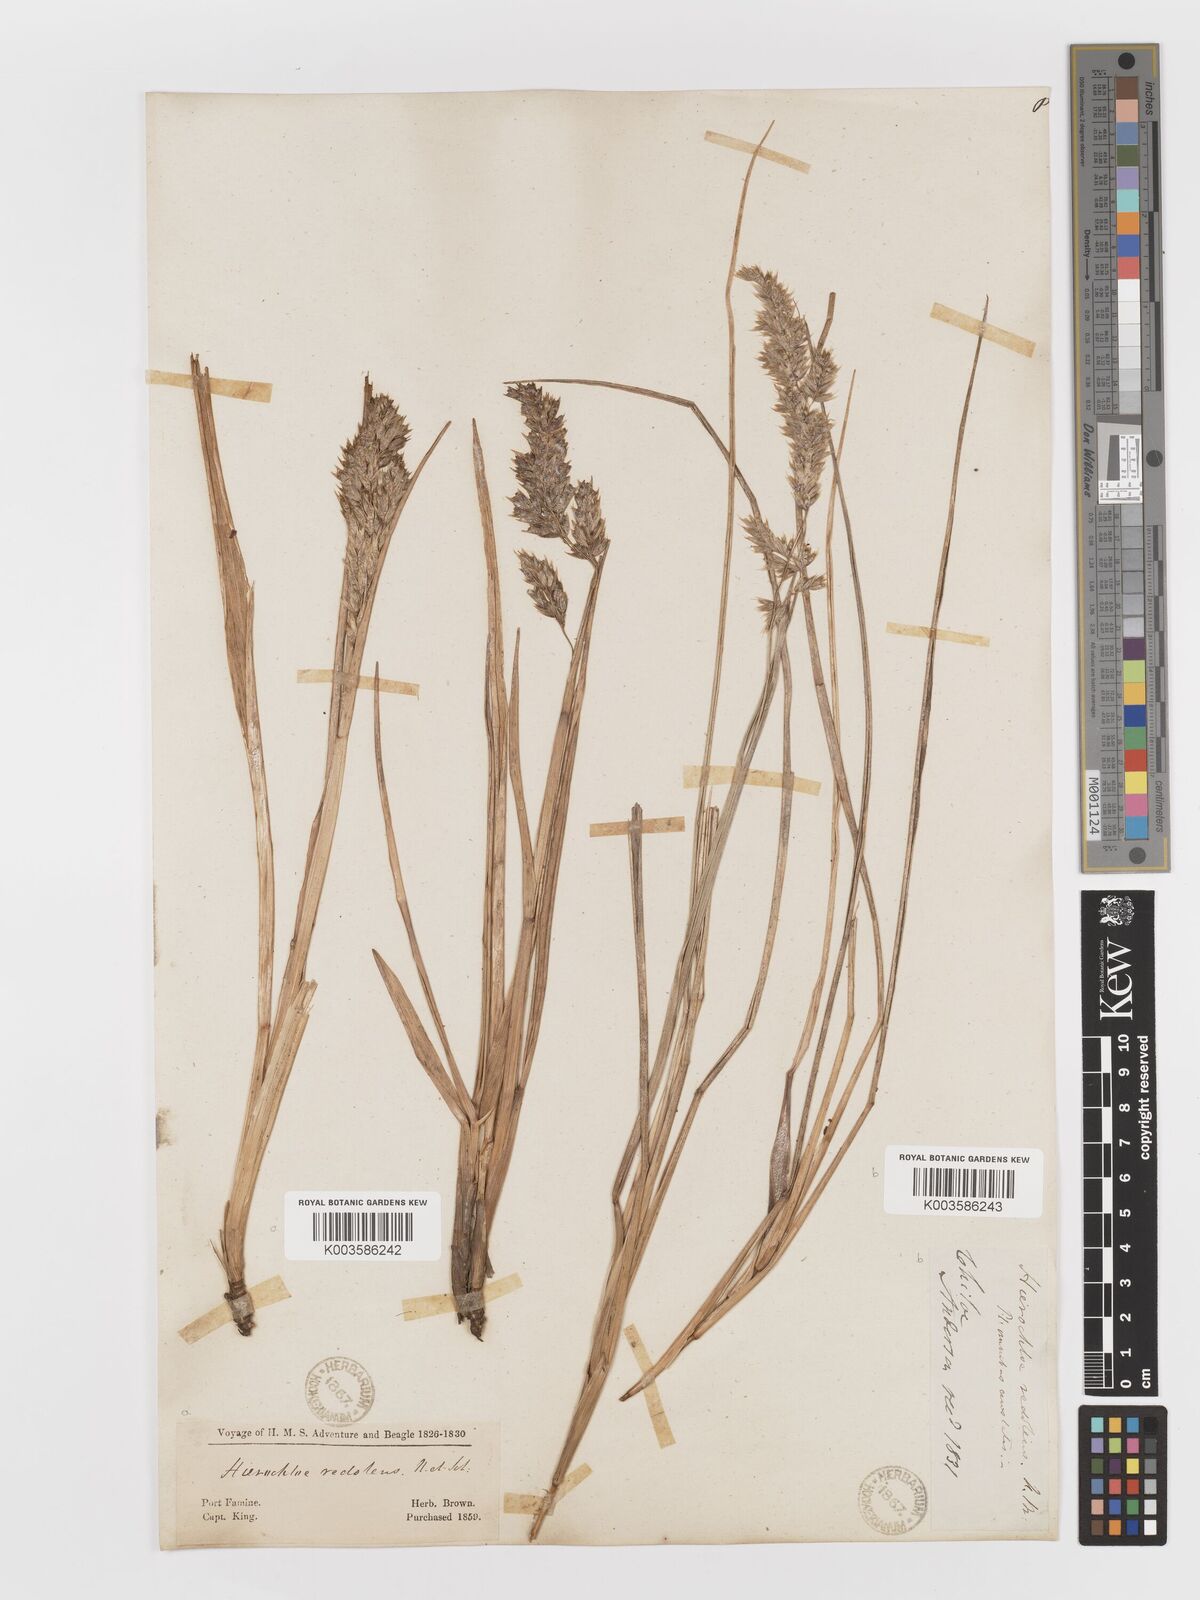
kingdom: Plantae
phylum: Tracheophyta
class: Liliopsida
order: Poales
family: Poaceae
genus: Anthoxanthum
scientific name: Anthoxanthum redolens
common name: Sweet holy grass
